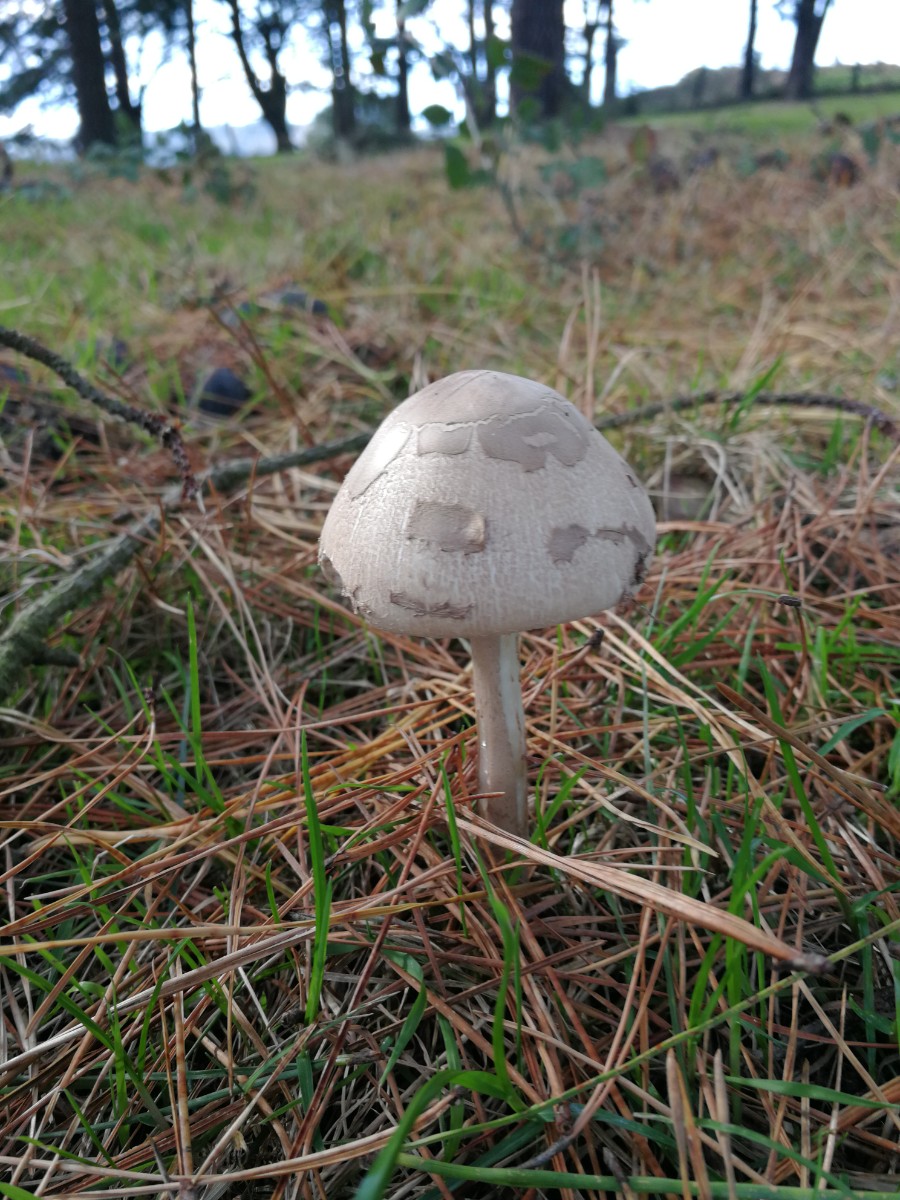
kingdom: Fungi
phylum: Basidiomycota
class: Agaricomycetes
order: Agaricales
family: Agaricaceae
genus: Macrolepiota
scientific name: Macrolepiota
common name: kæmpeparasolhat
